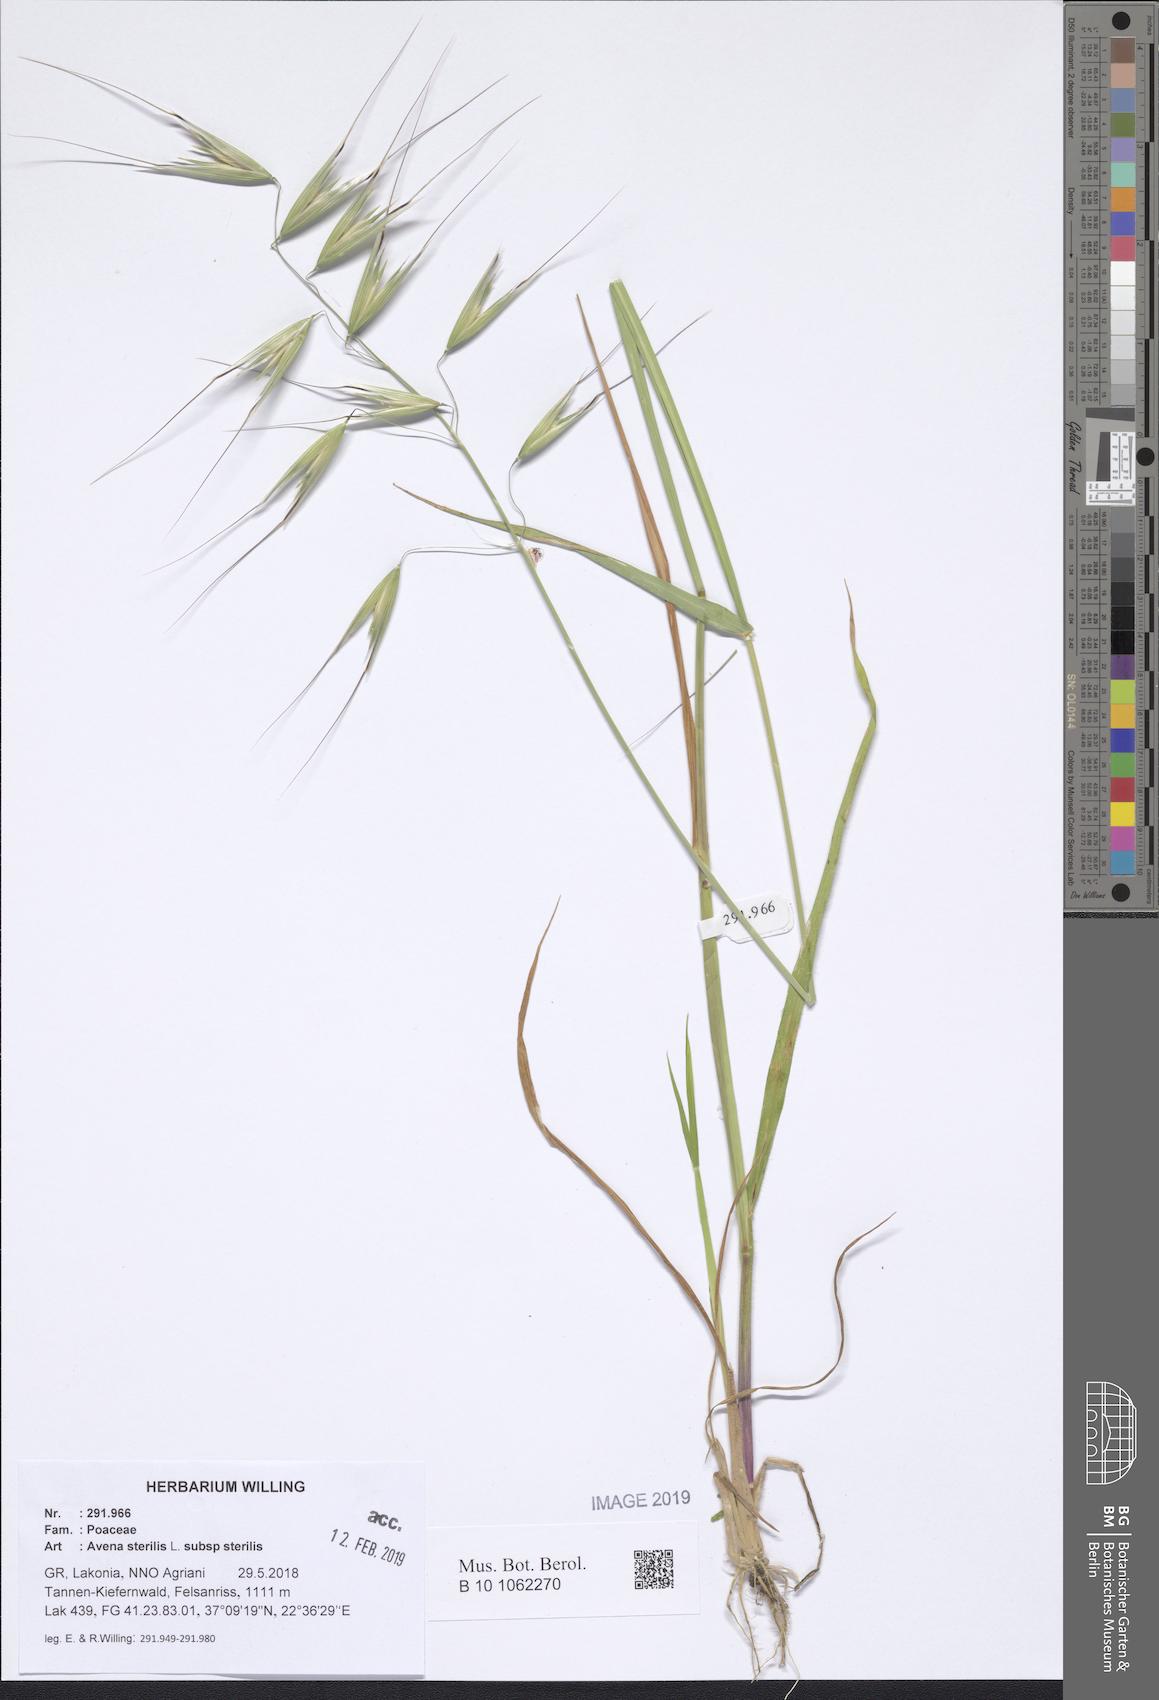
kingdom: Plantae
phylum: Tracheophyta
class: Liliopsida
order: Poales
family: Poaceae
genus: Avena
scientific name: Avena sterilis
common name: Animated oat
